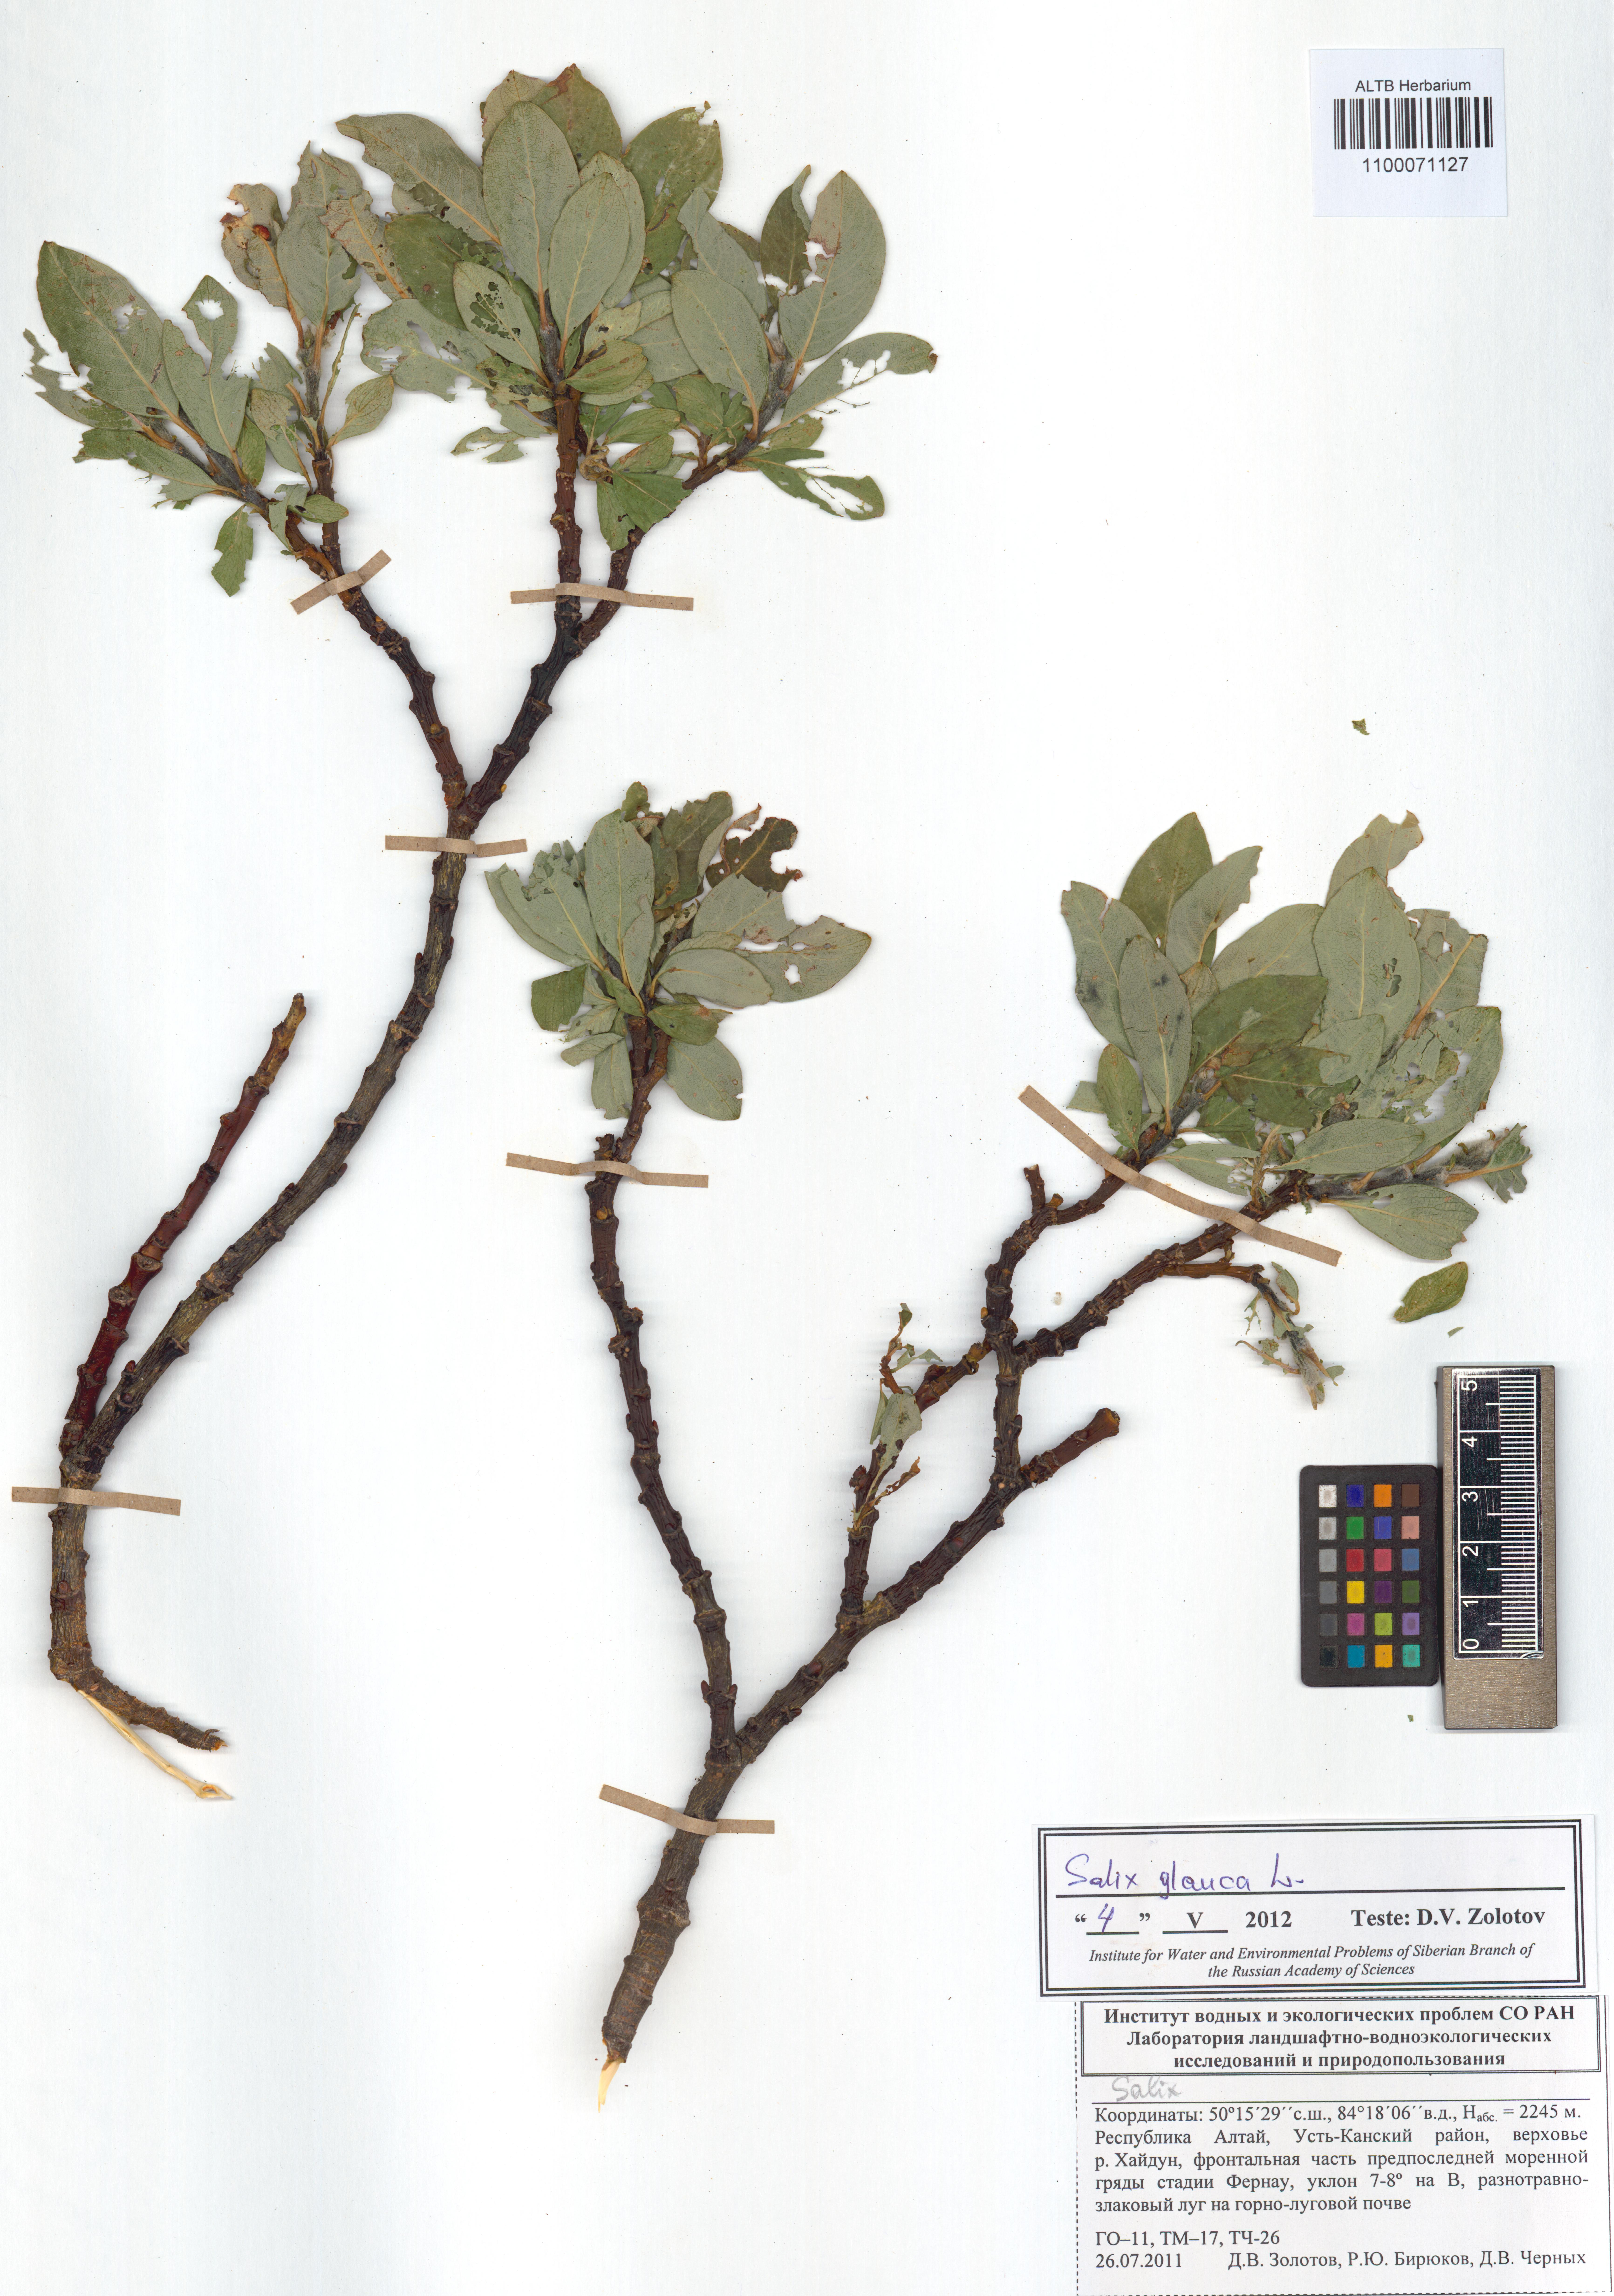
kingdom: Plantae
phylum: Tracheophyta
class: Magnoliopsida
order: Malpighiales
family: Salicaceae
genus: Salix
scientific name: Salix glauca
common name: Glaucous willow
